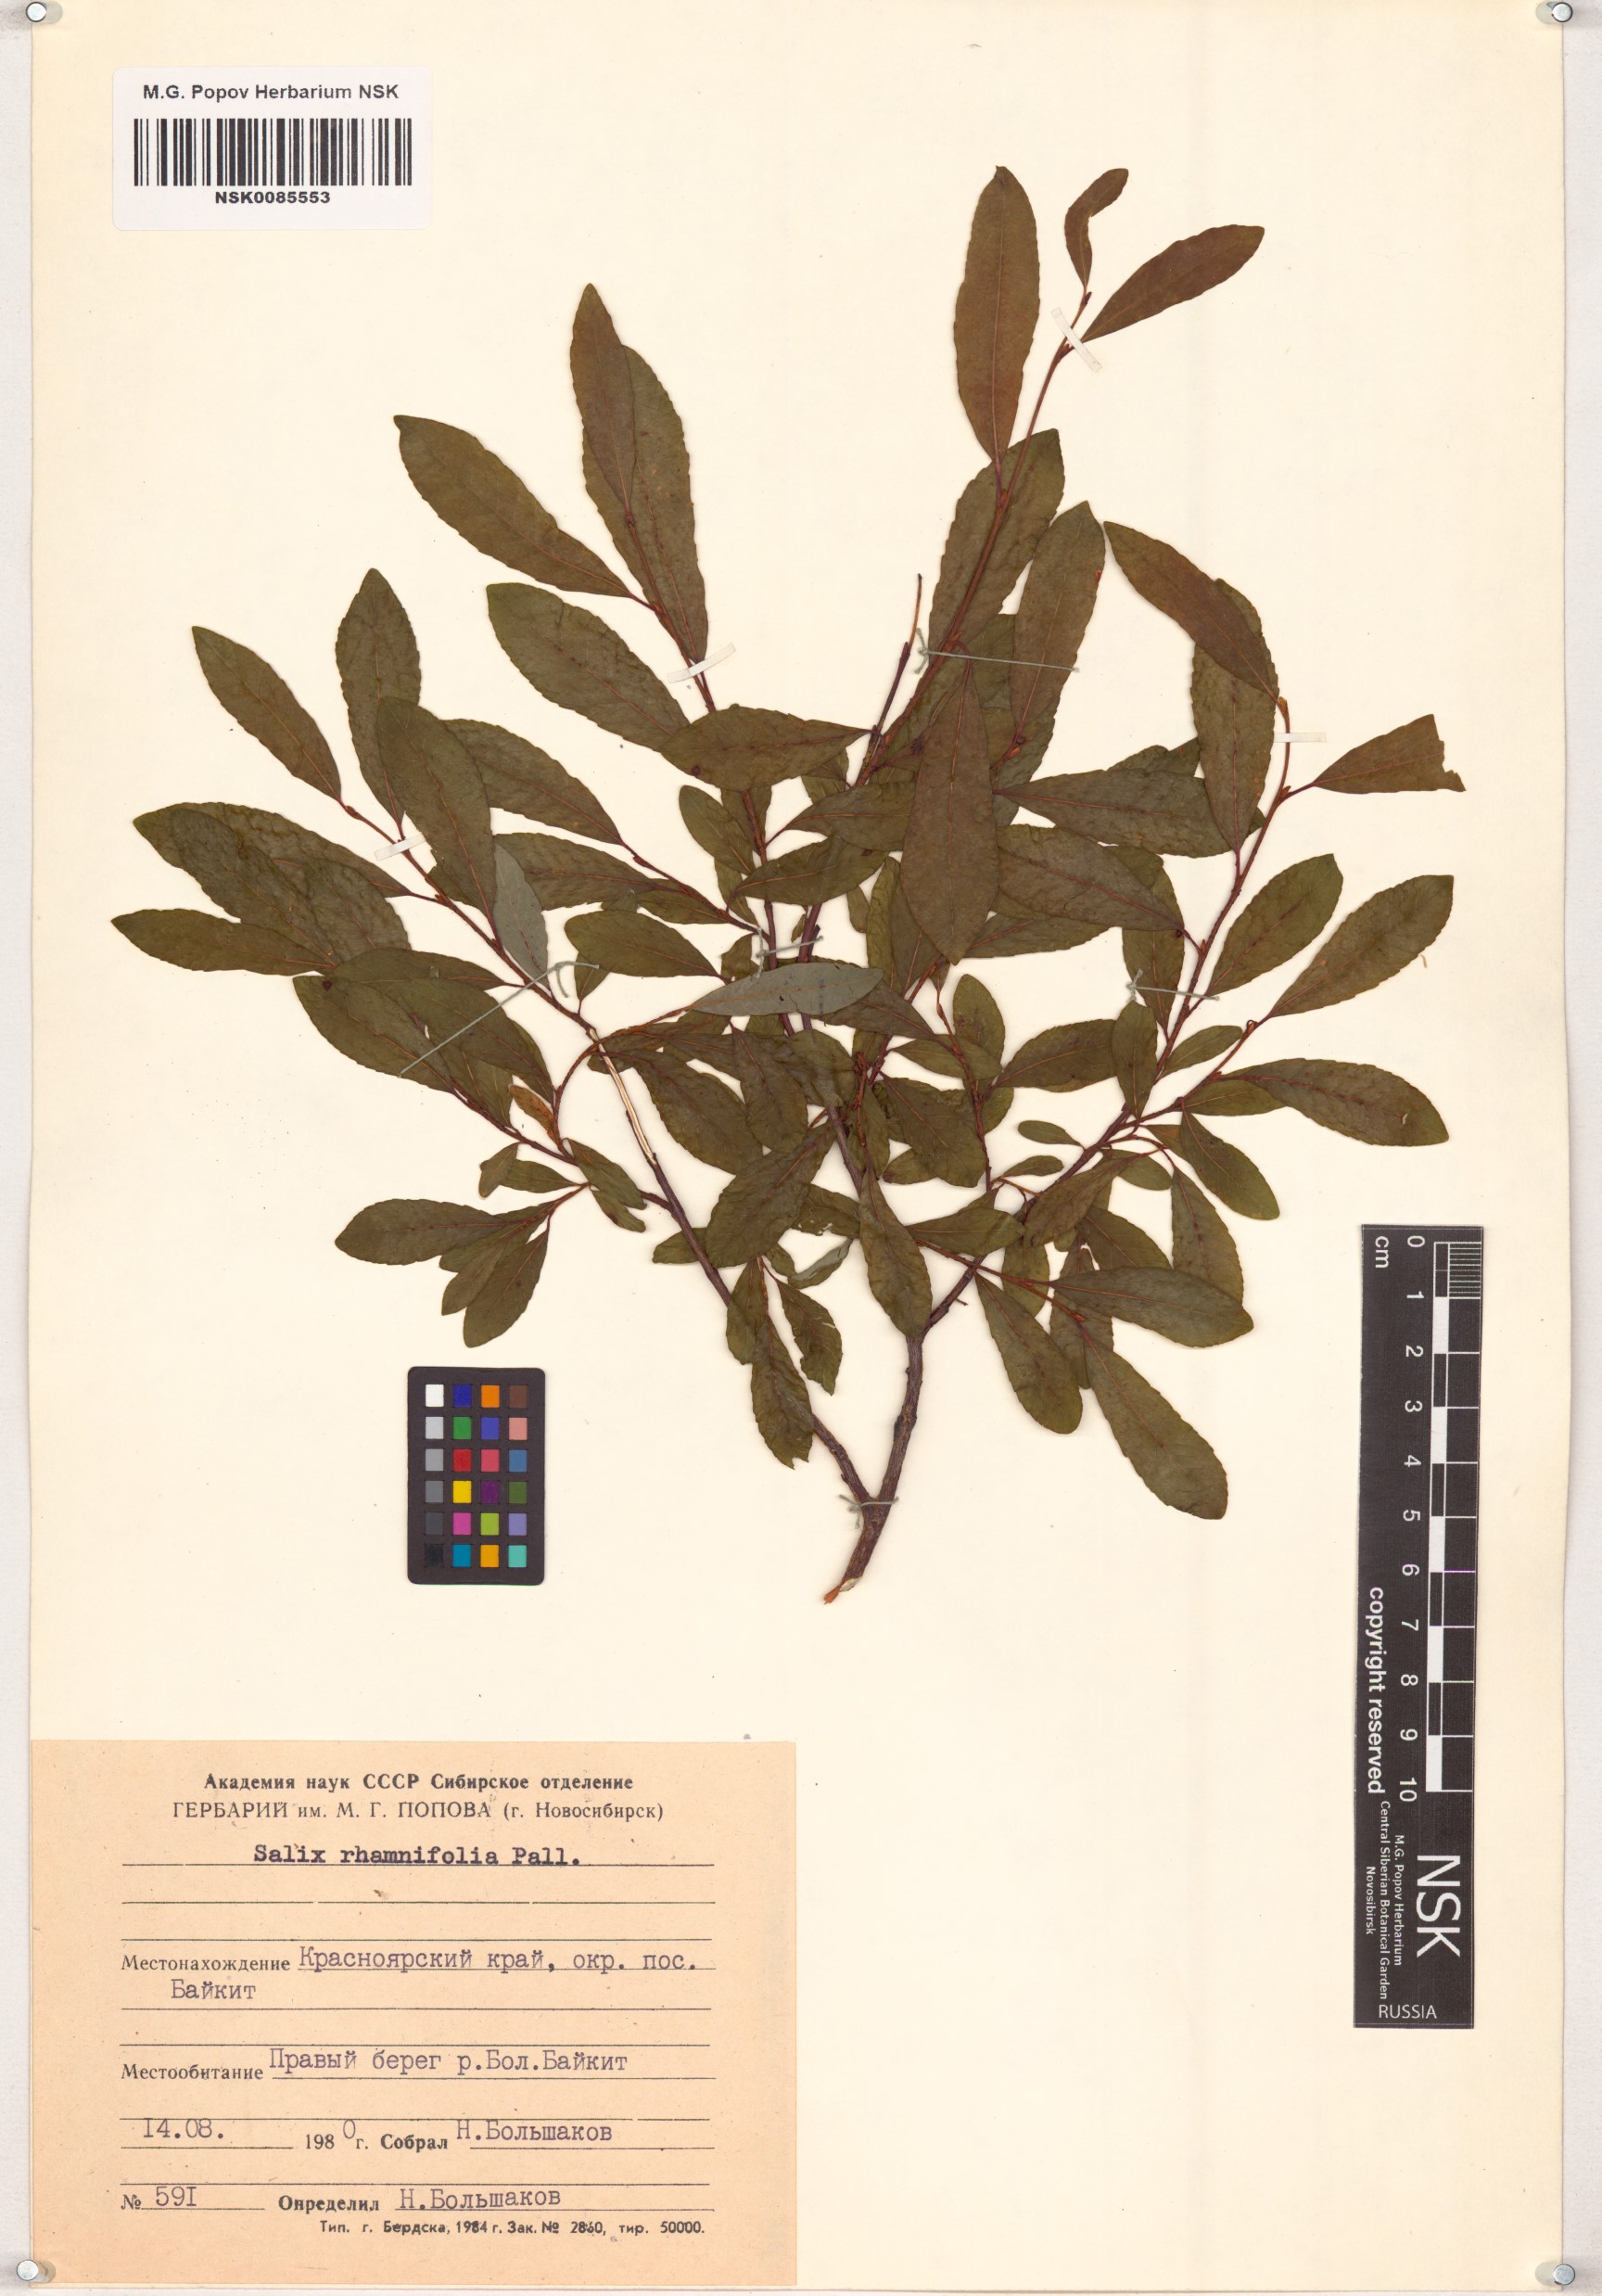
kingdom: Plantae
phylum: Tracheophyta
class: Magnoliopsida
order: Malpighiales
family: Salicaceae
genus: Salix
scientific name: Salix rhamnifolia
